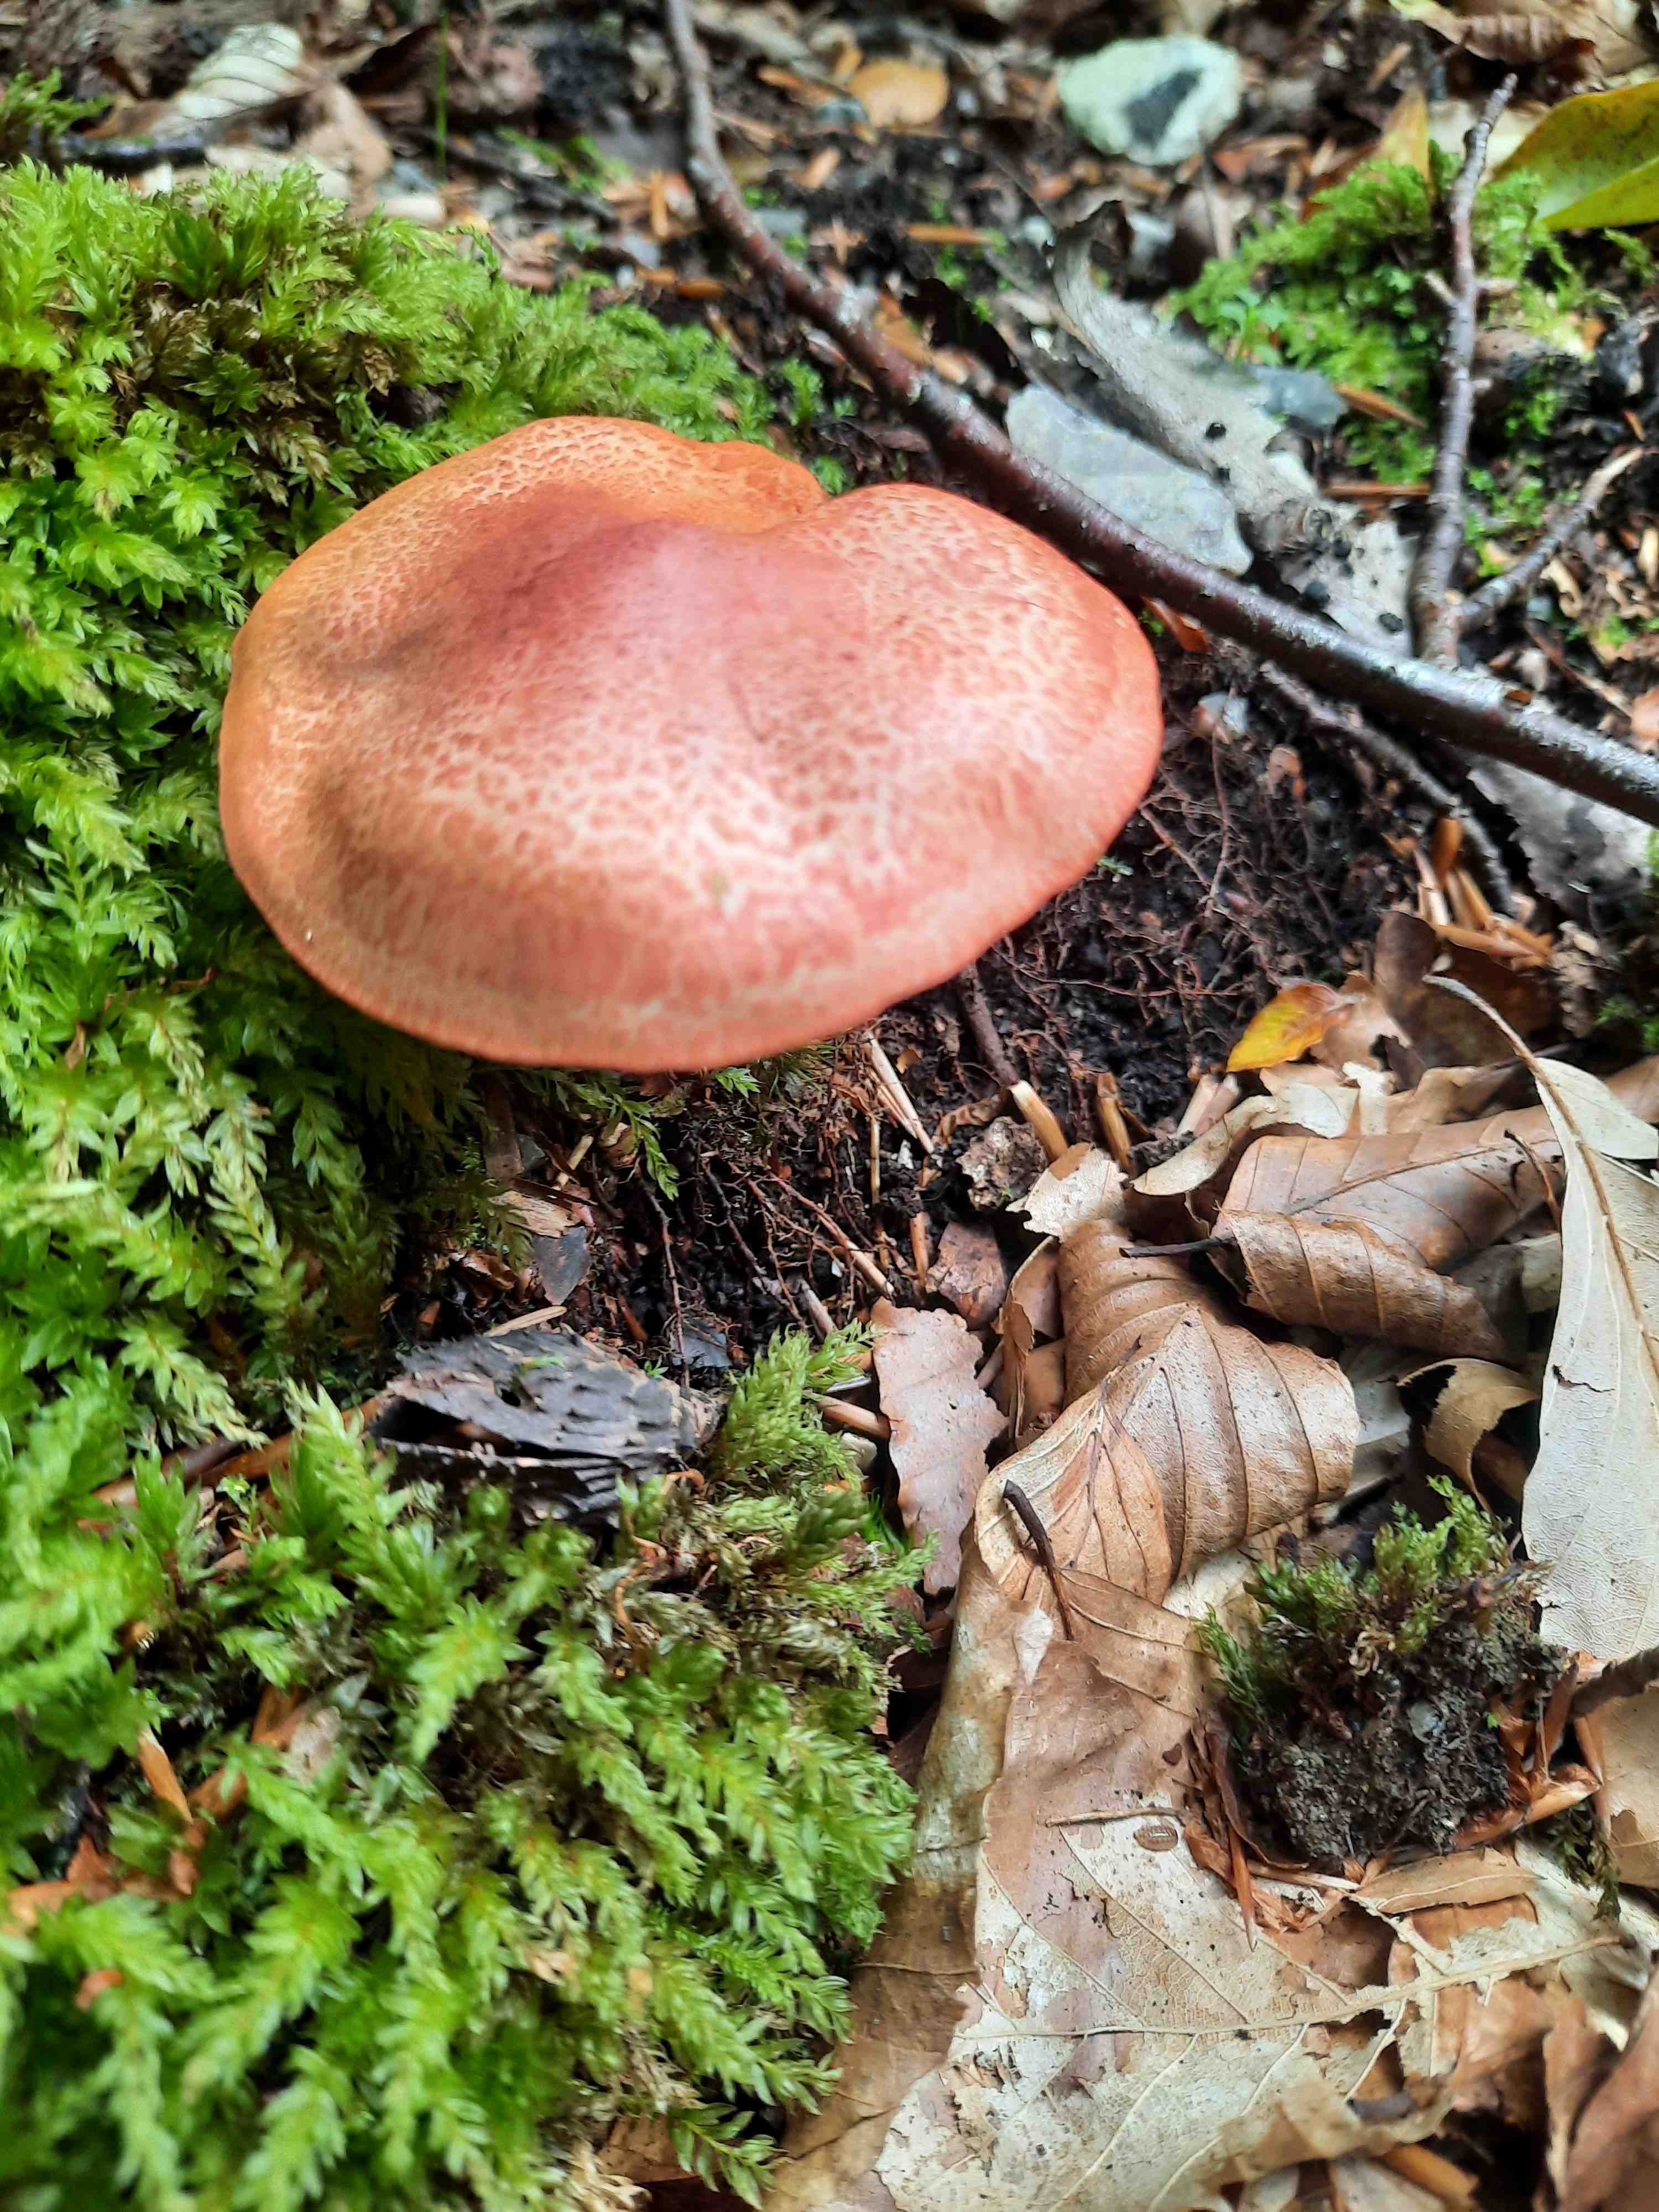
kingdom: Fungi
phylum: Basidiomycota
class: Agaricomycetes
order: Agaricales
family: Cortinariaceae
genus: Cortinarius
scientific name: Cortinarius bolaris
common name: cinnoberskællet slørhat
